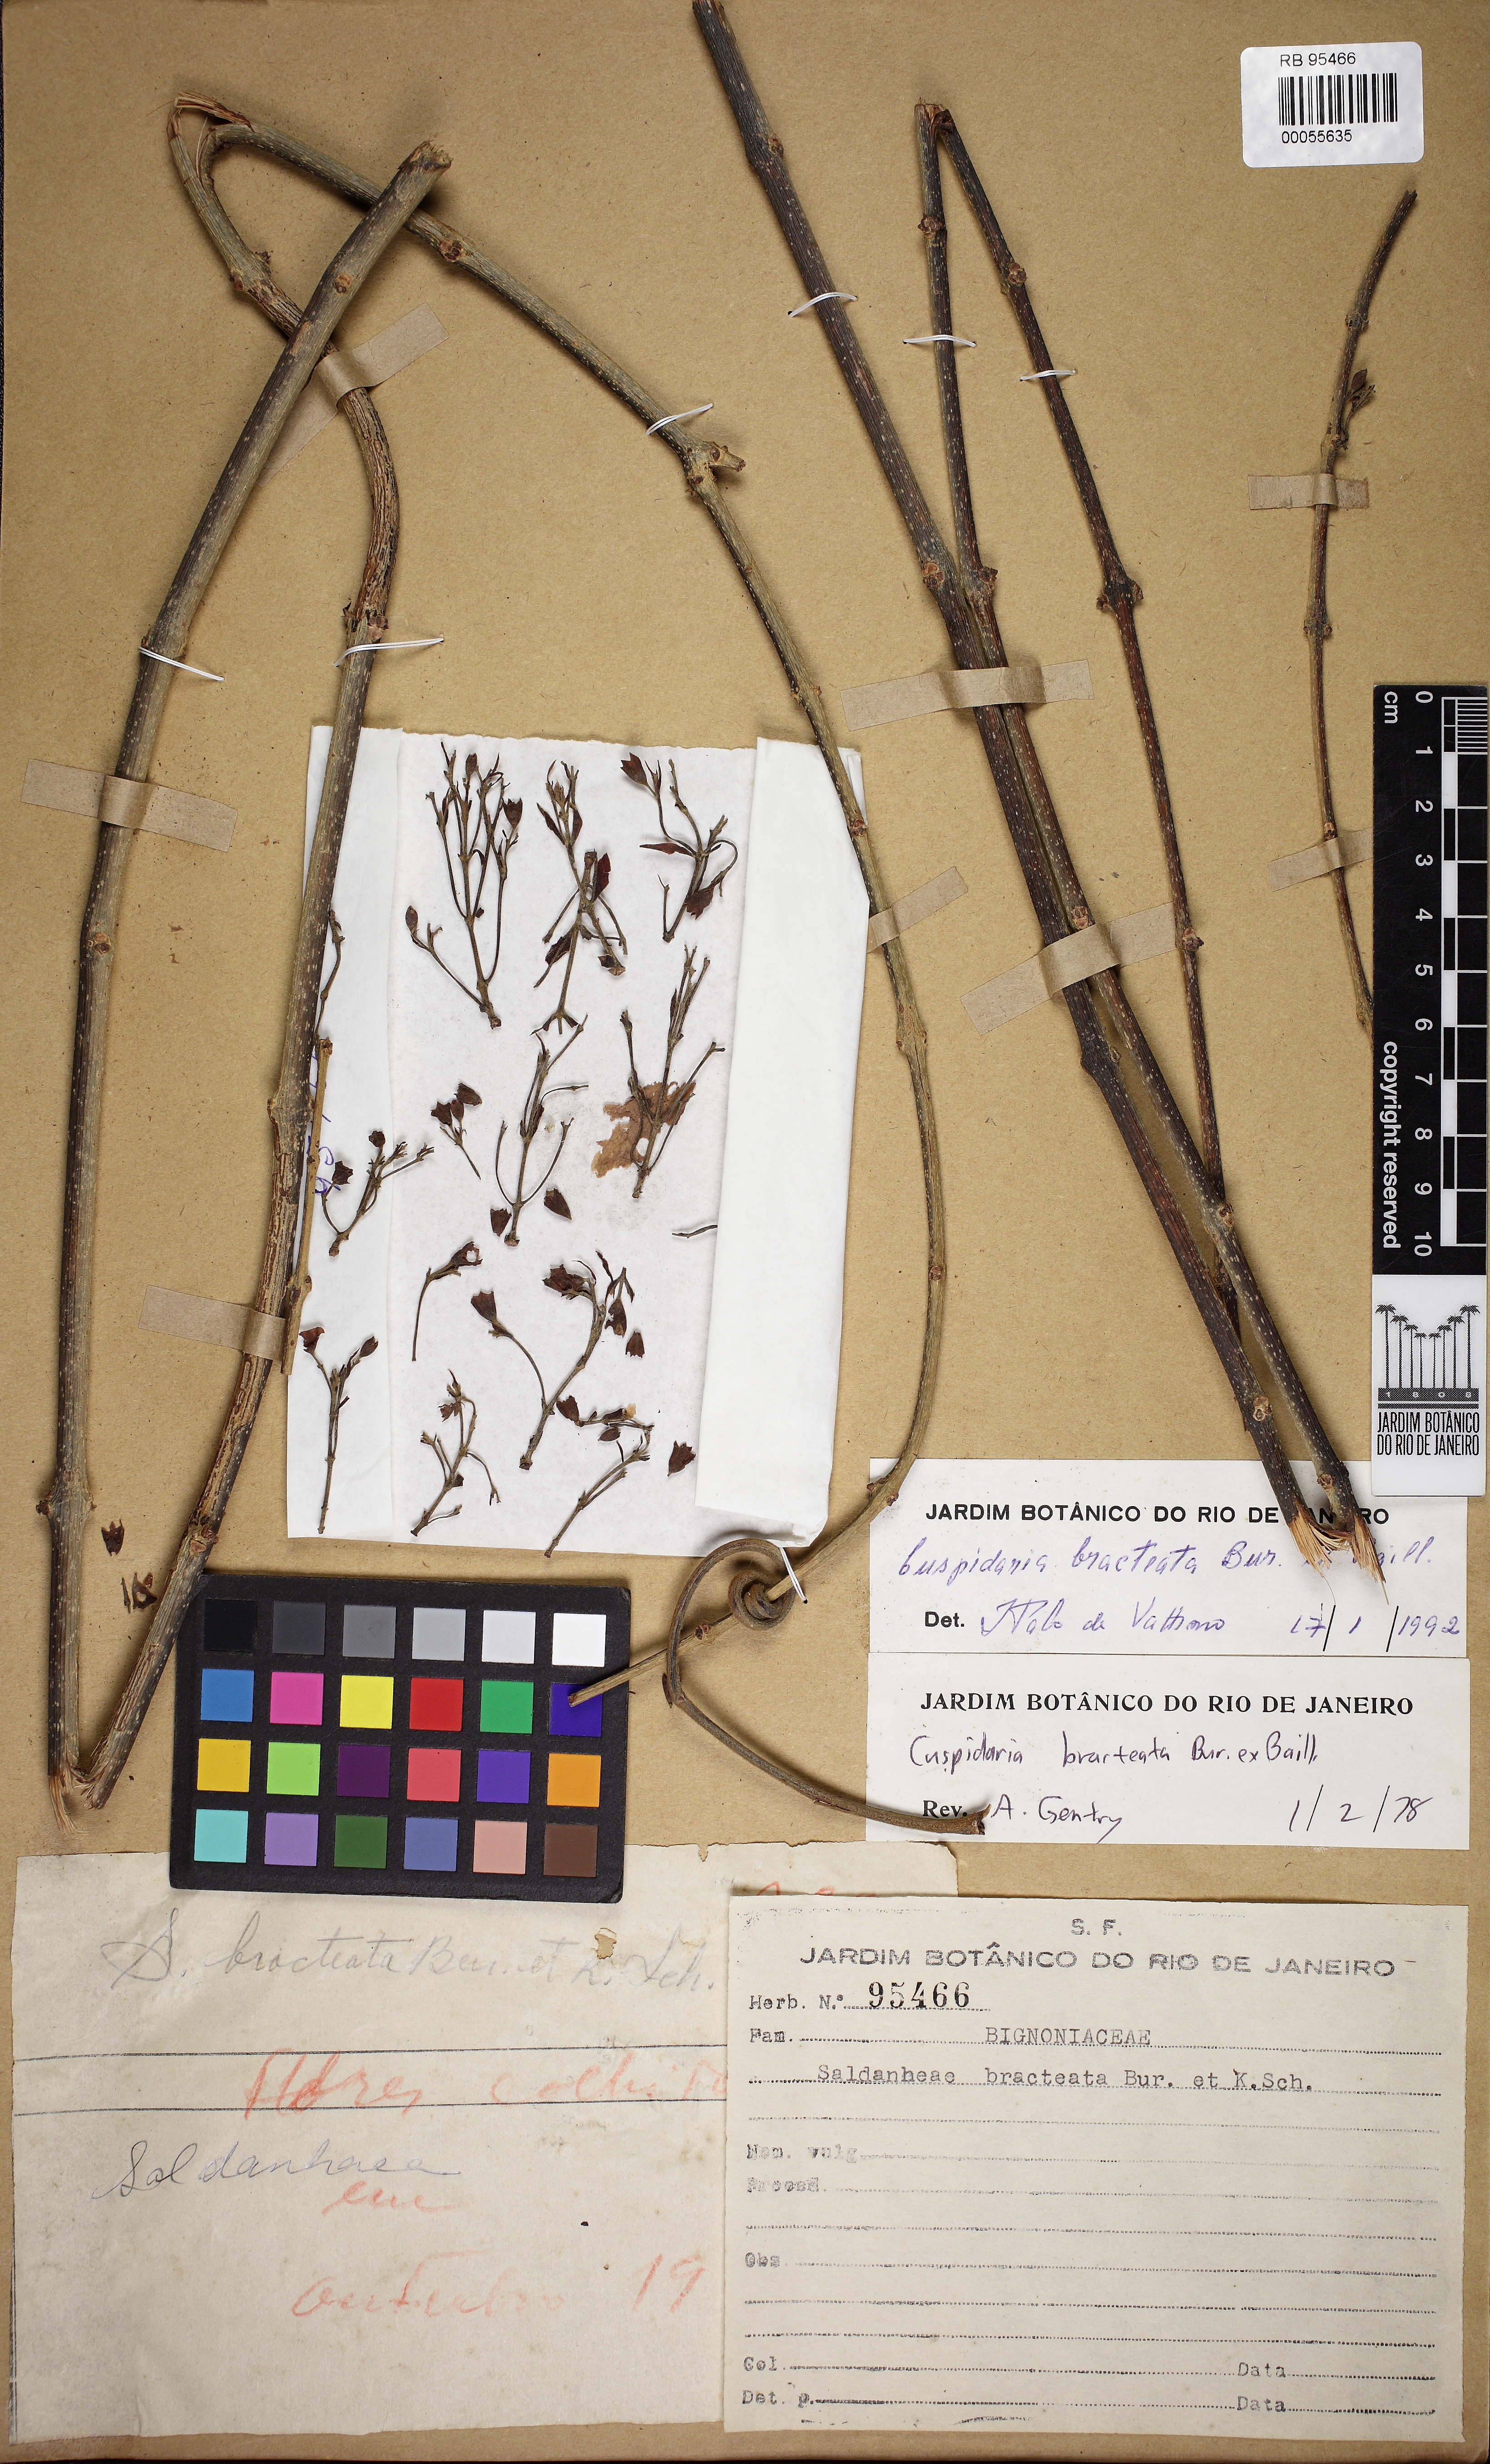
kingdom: Plantae
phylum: Tracheophyta
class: Magnoliopsida
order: Lamiales
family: Bignoniaceae
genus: Cuspidaria
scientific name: Cuspidaria bracteata
